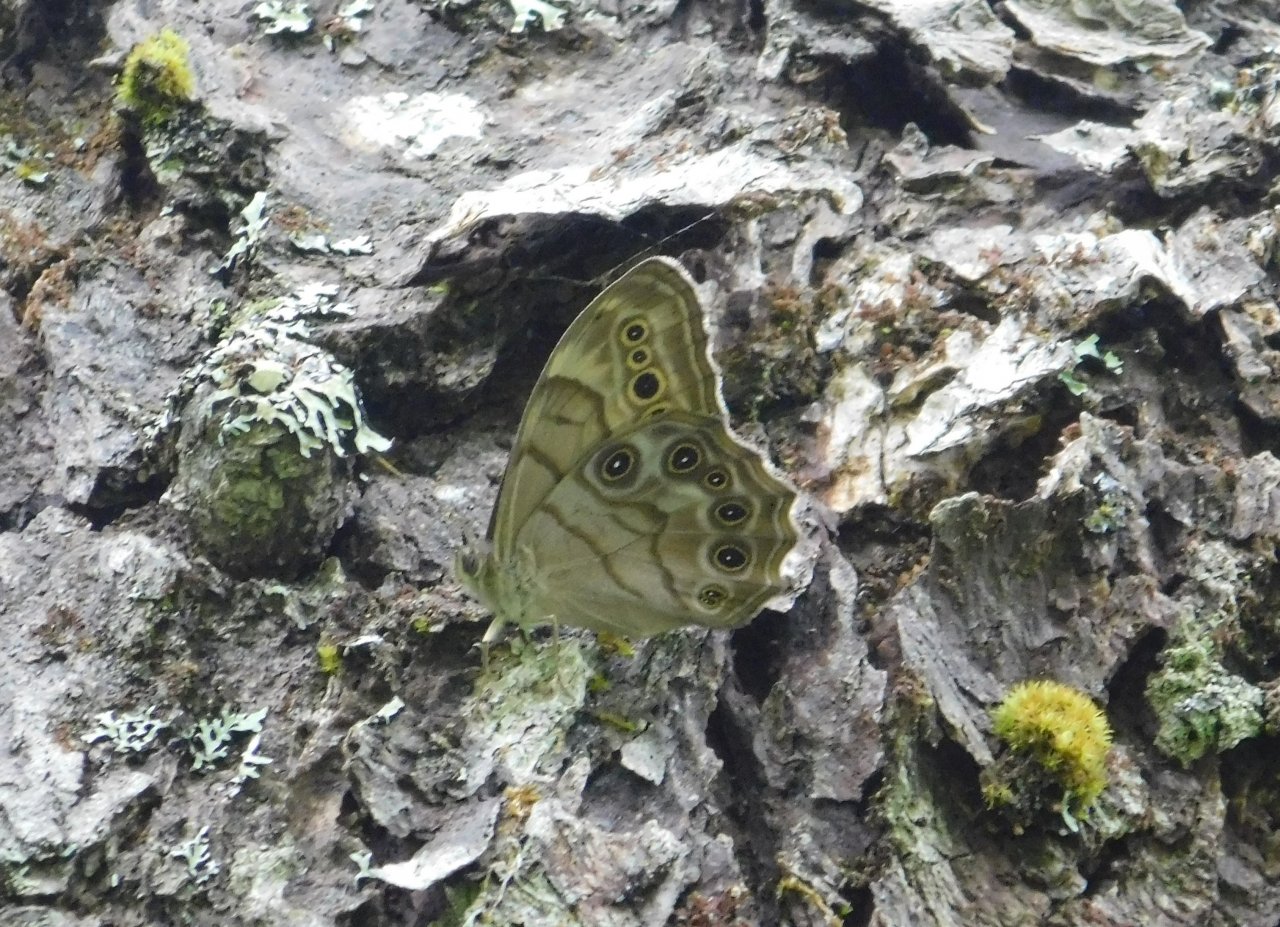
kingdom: Animalia
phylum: Arthropoda
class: Insecta
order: Lepidoptera
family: Nymphalidae
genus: Lethe
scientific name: Lethe anthedon
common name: Northern Pearly-Eye
